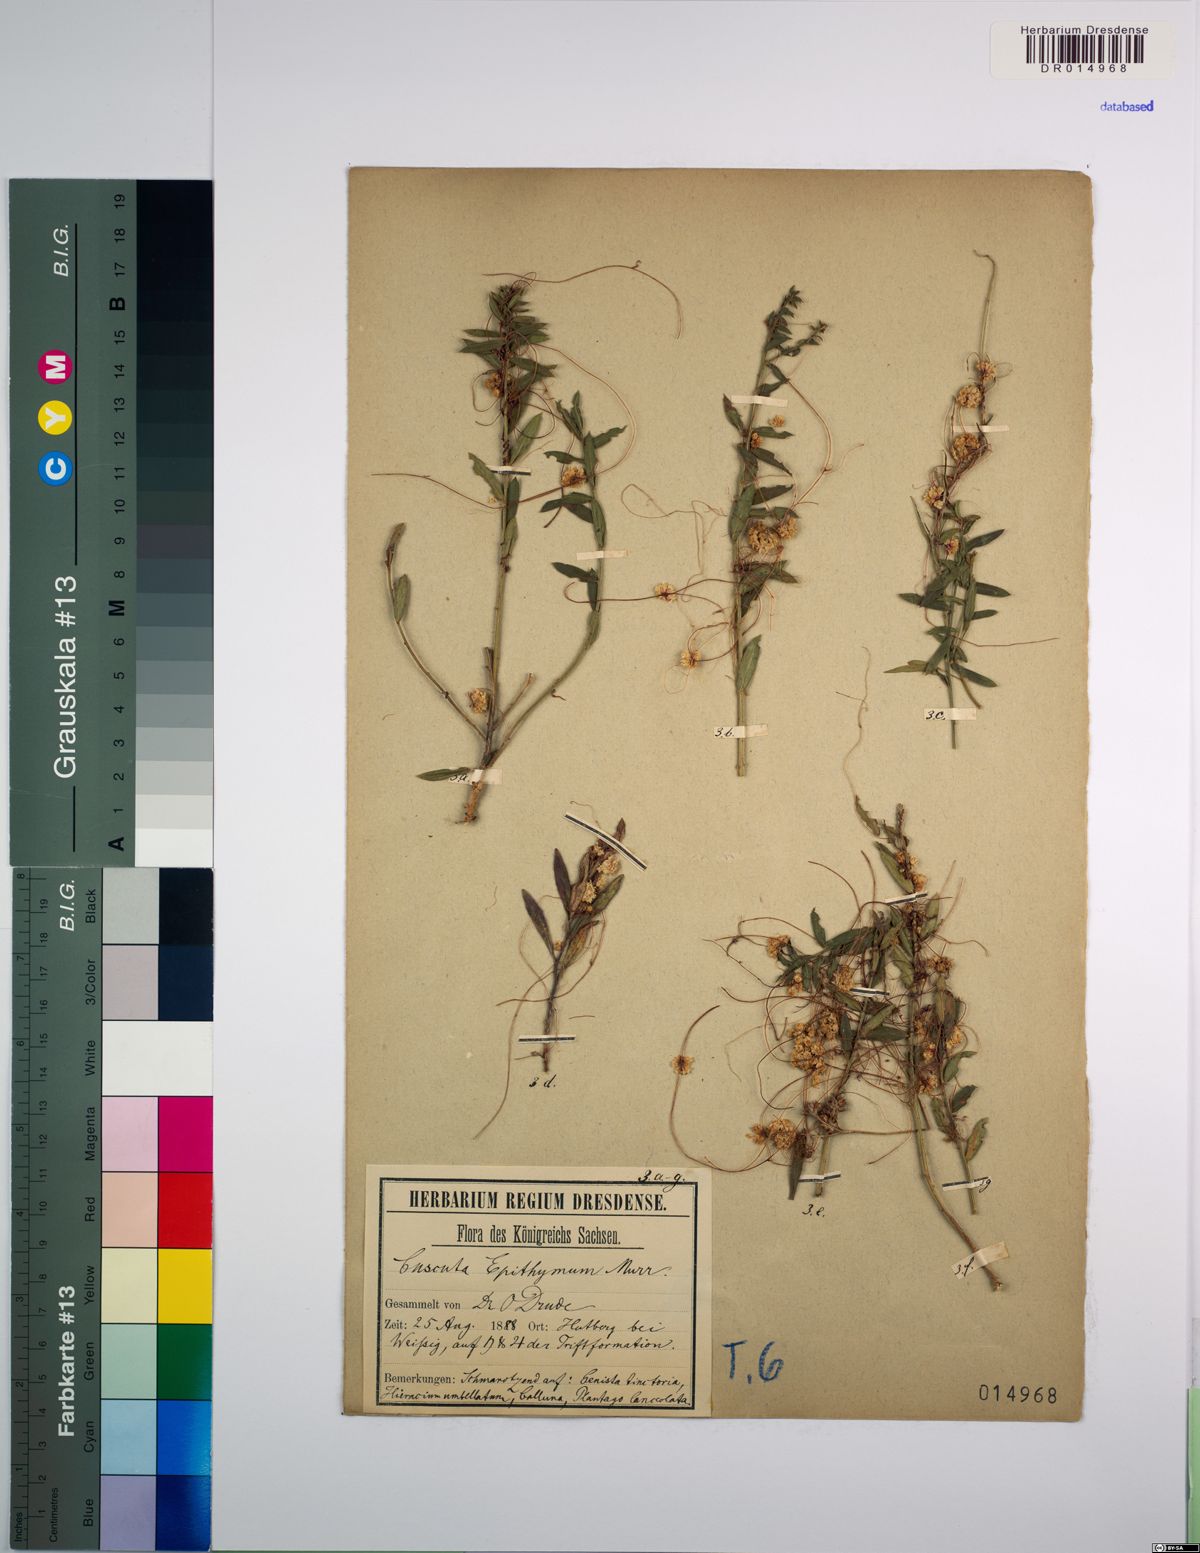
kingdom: Plantae
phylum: Tracheophyta
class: Magnoliopsida
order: Solanales
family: Convolvulaceae
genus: Cuscuta
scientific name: Cuscuta epithymum
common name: Clover dodder
